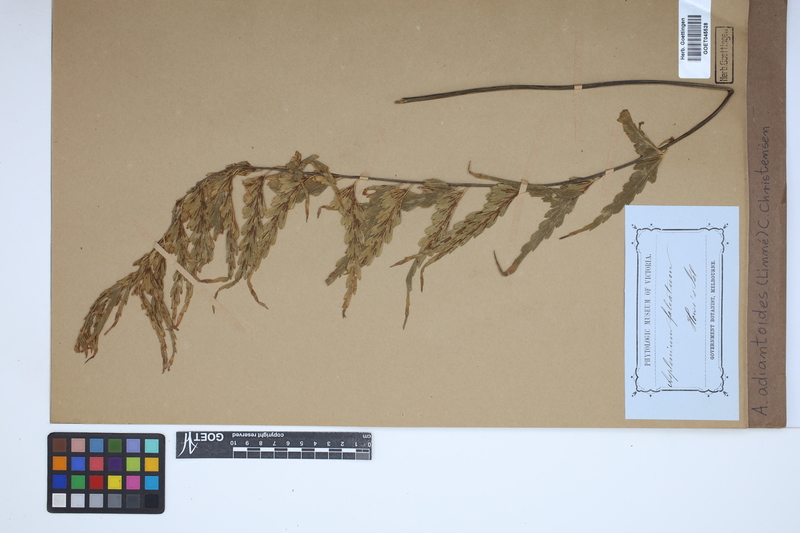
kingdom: Plantae
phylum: Tracheophyta
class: Polypodiopsida
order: Polypodiales
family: Aspleniaceae
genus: Asplenium
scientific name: Asplenium aethiopicum
